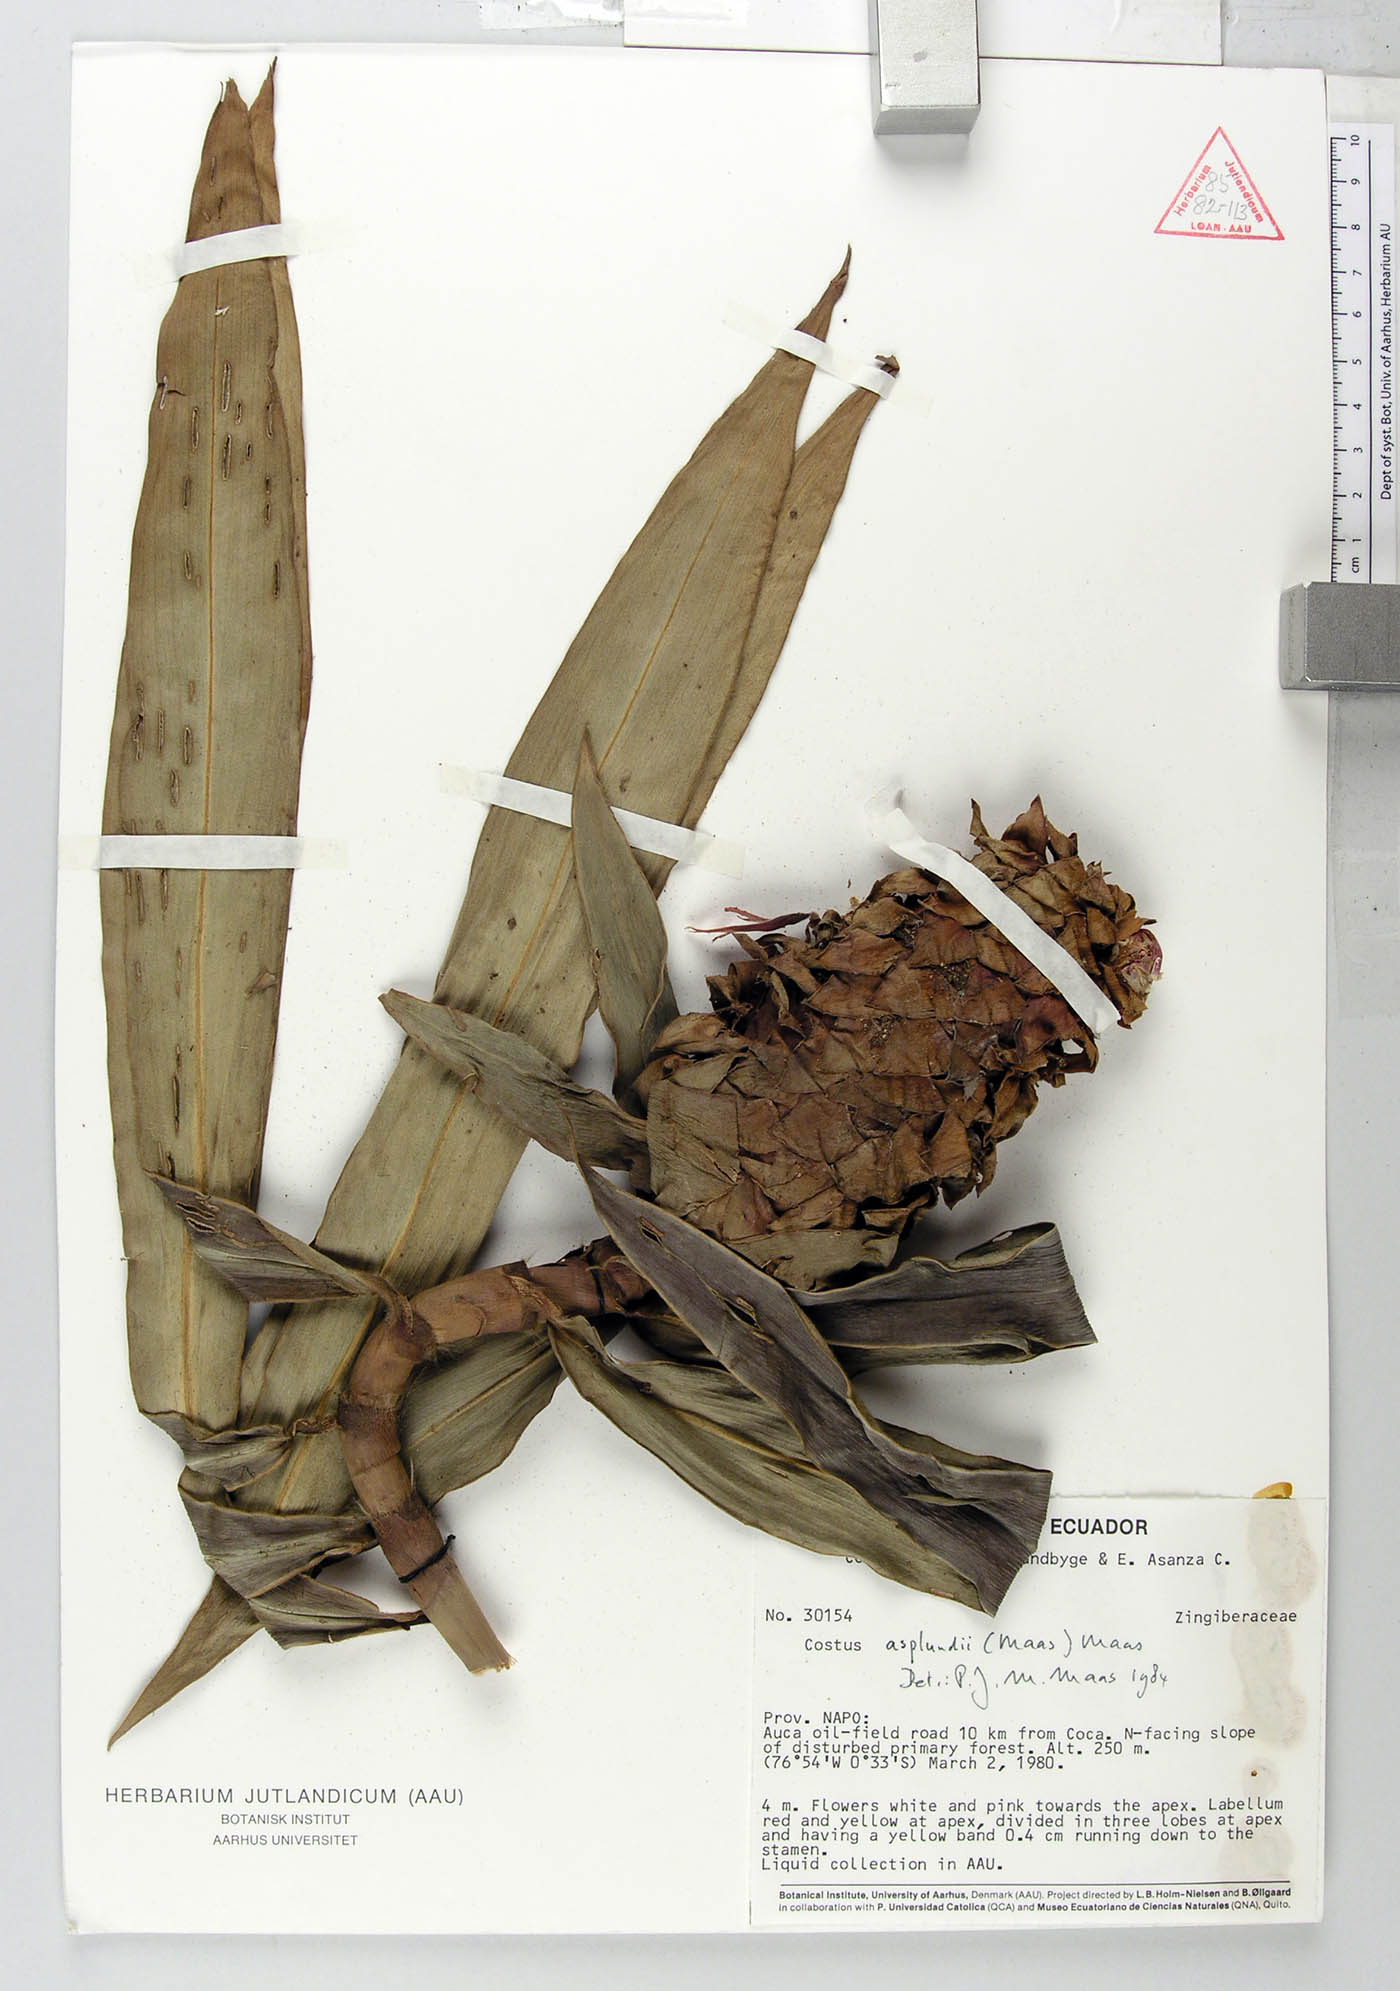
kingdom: Plantae
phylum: Tracheophyta
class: Liliopsida
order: Zingiberales
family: Costaceae
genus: Costus
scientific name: Costus asplundii
